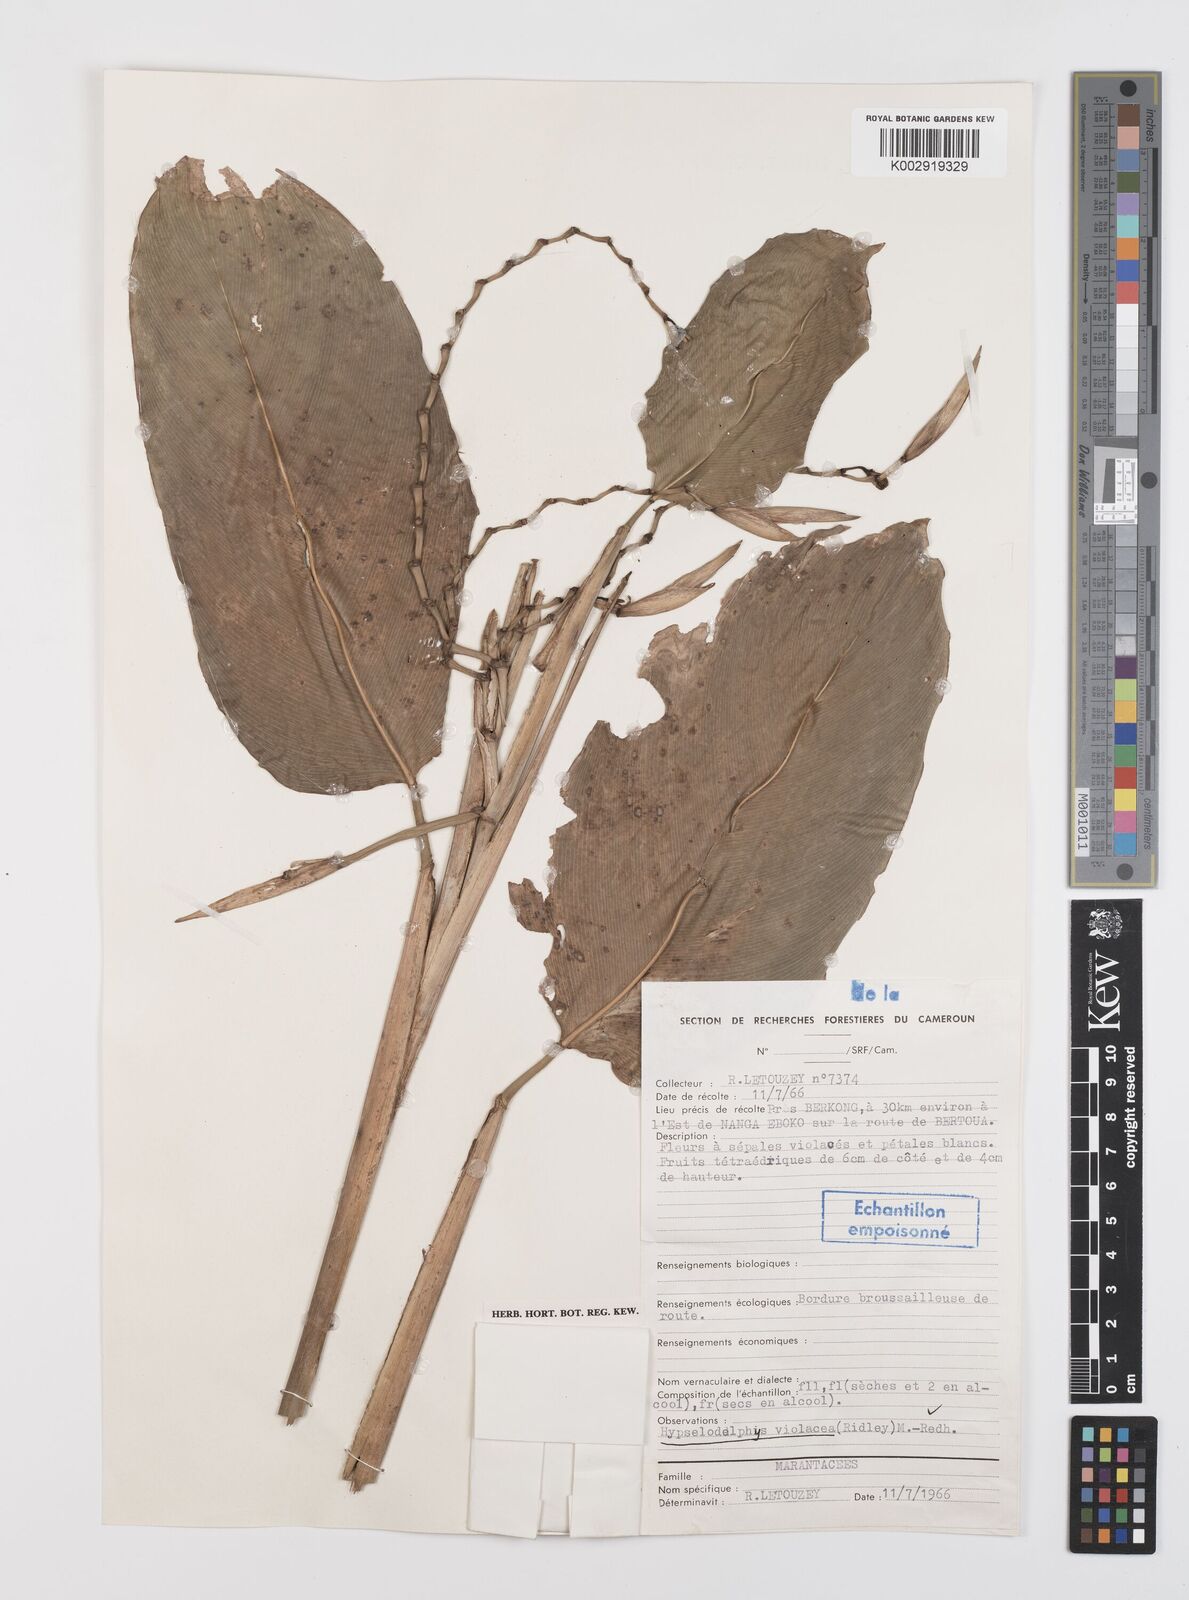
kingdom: Plantae
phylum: Tracheophyta
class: Liliopsida
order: Zingiberales
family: Marantaceae
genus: Hypselodelphys
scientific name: Hypselodelphys violacea
